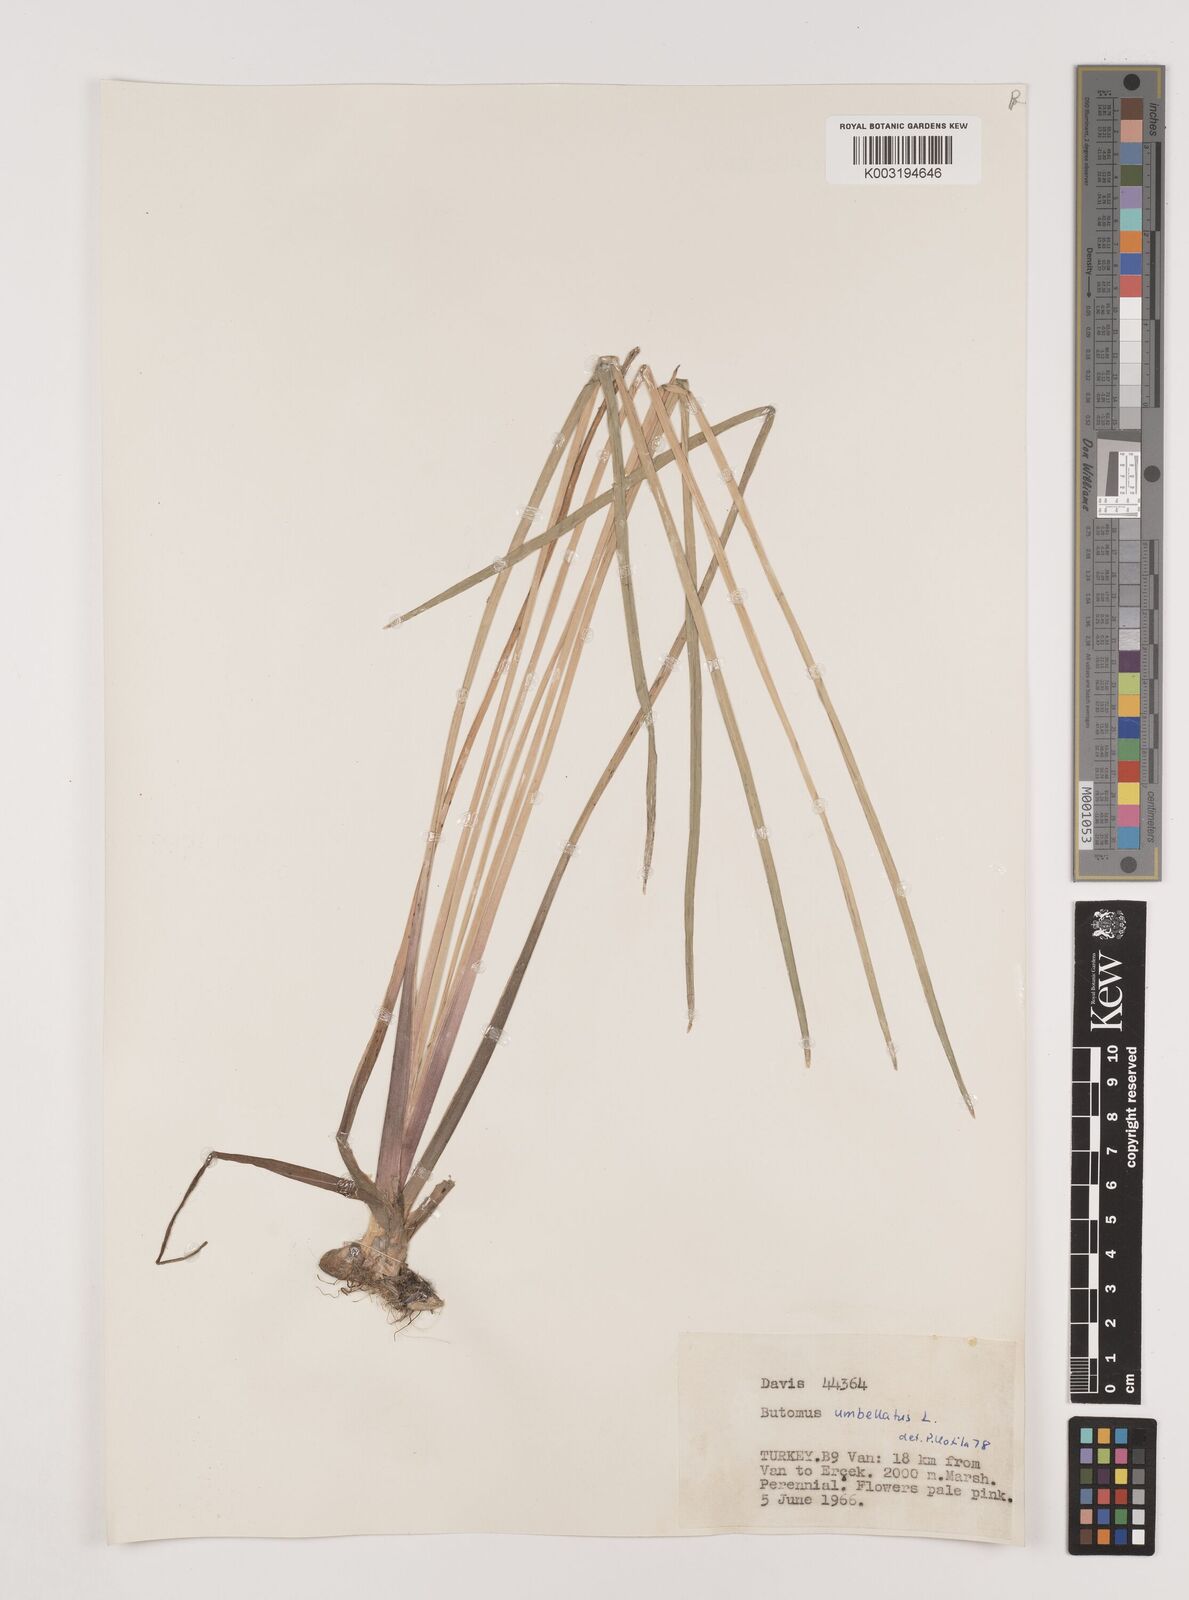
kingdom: Plantae
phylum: Tracheophyta
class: Liliopsida
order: Alismatales
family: Butomaceae
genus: Butomus
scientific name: Butomus umbellatus
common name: Flowering-rush
